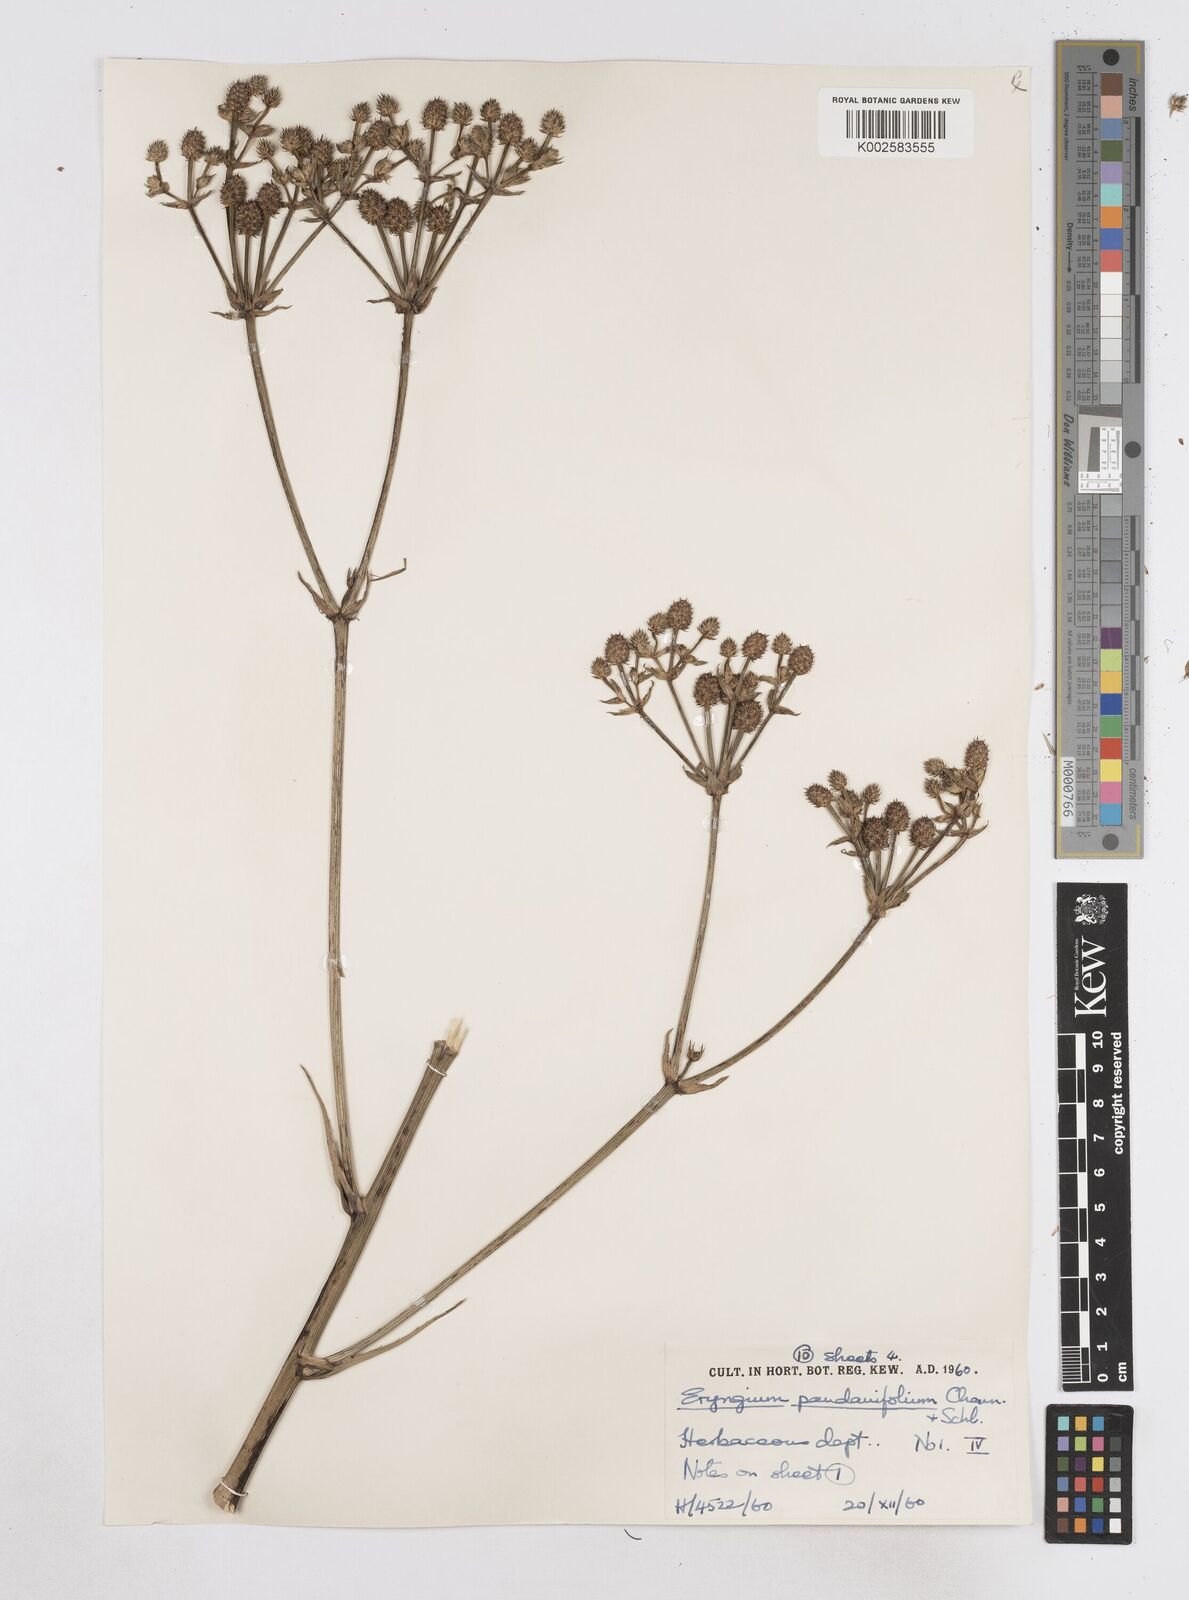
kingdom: Plantae
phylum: Tracheophyta
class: Magnoliopsida
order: Apiales
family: Apiaceae
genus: Eryngium
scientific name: Eryngium pandanifolium
